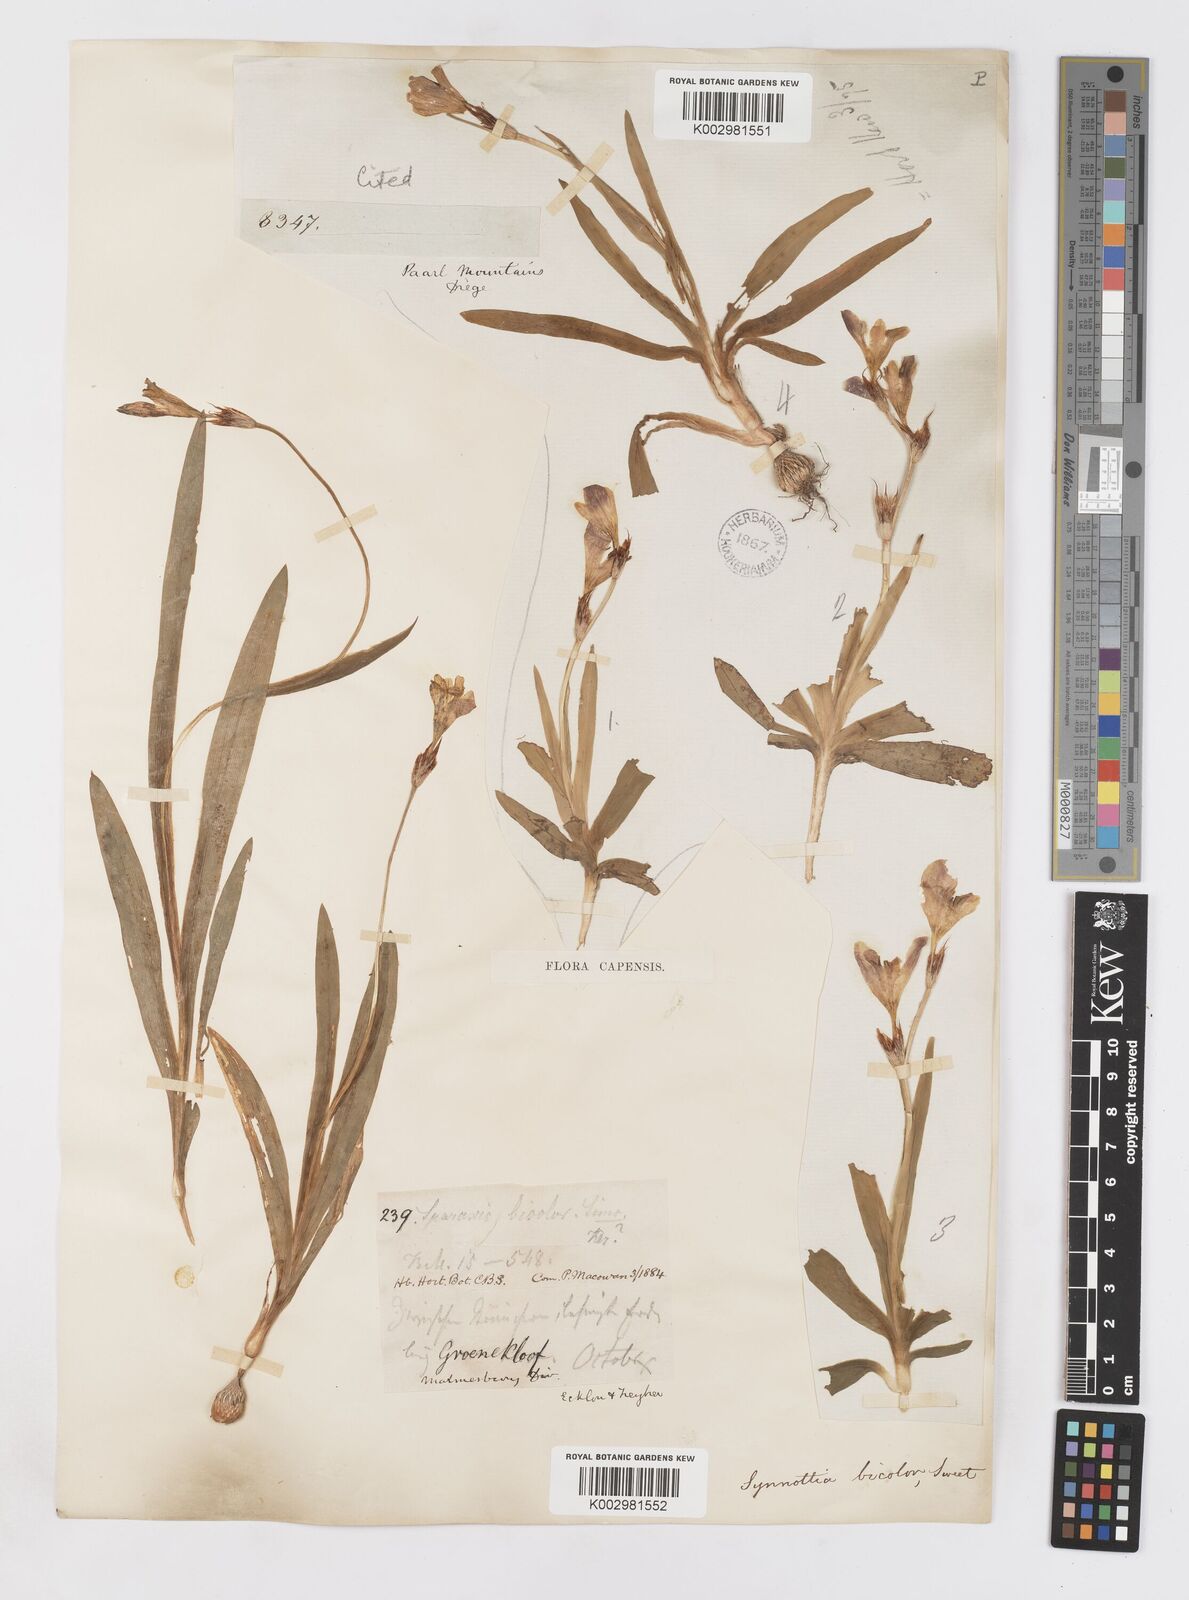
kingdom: Plantae
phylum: Tracheophyta
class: Liliopsida
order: Asparagales
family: Iridaceae
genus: Sparaxis
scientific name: Sparaxis villosa
